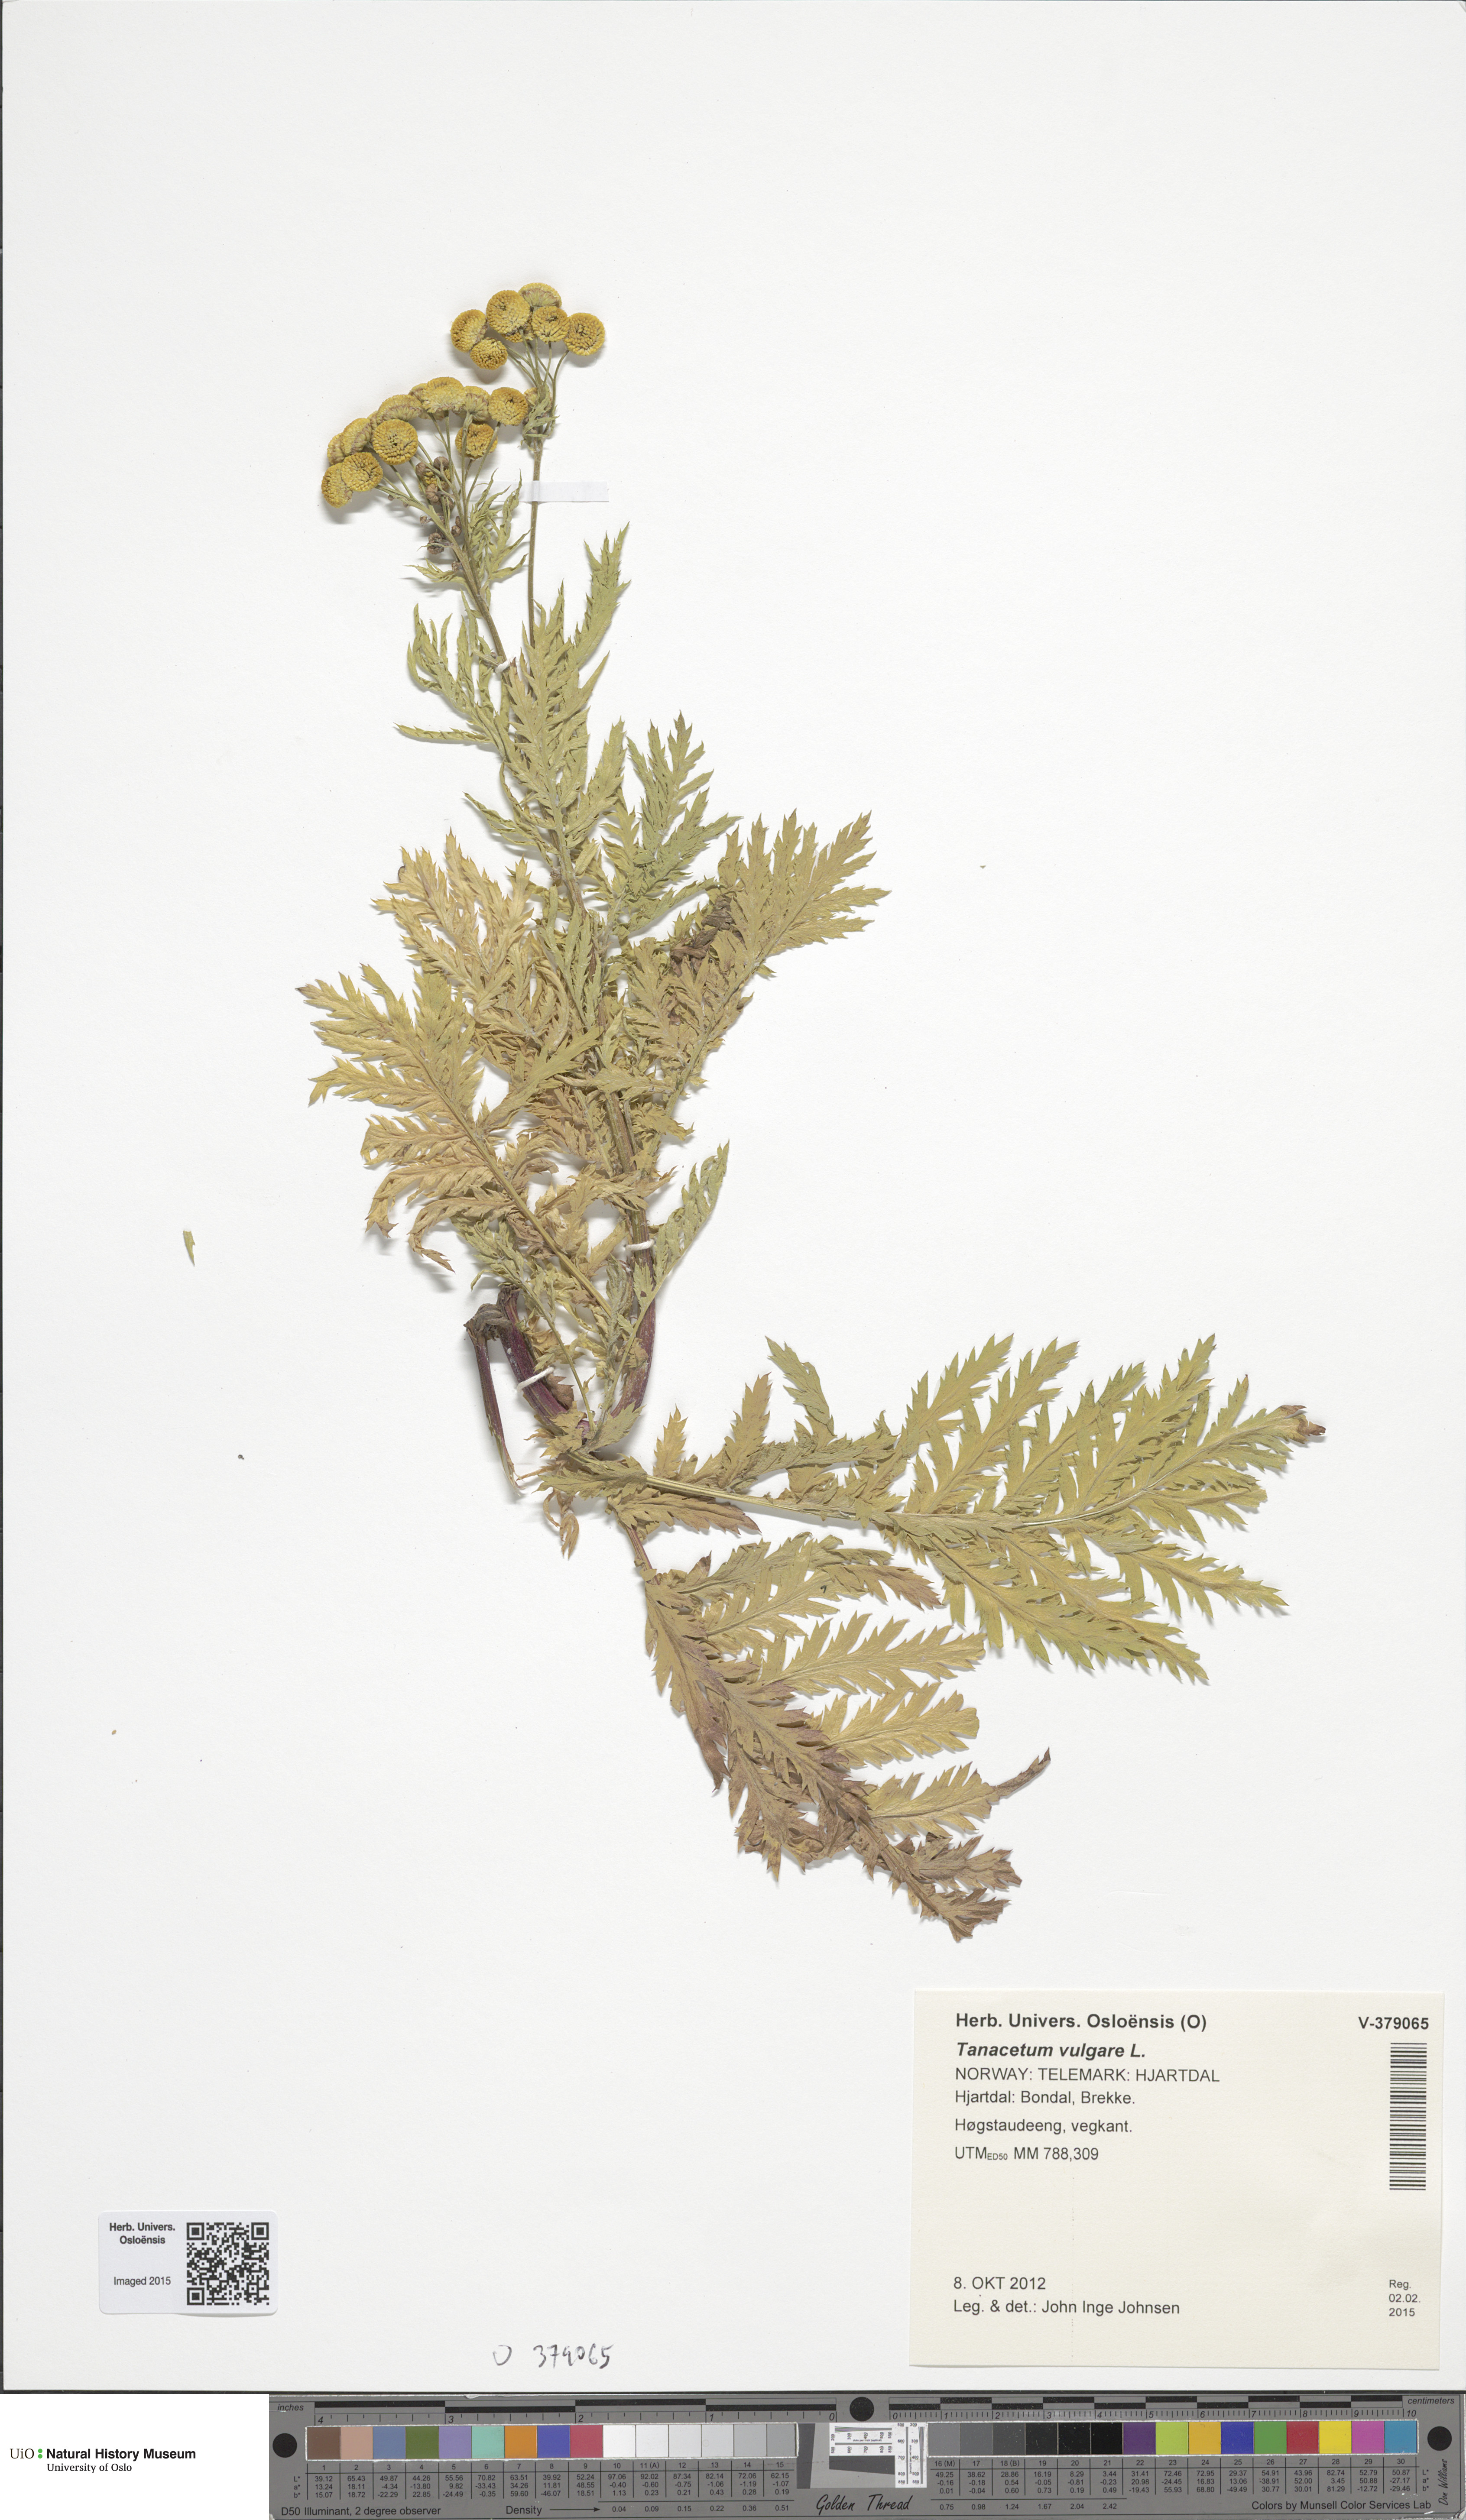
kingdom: Plantae
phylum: Tracheophyta
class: Magnoliopsida
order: Asterales
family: Asteraceae
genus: Tanacetum
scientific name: Tanacetum vulgare
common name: Common tansy
